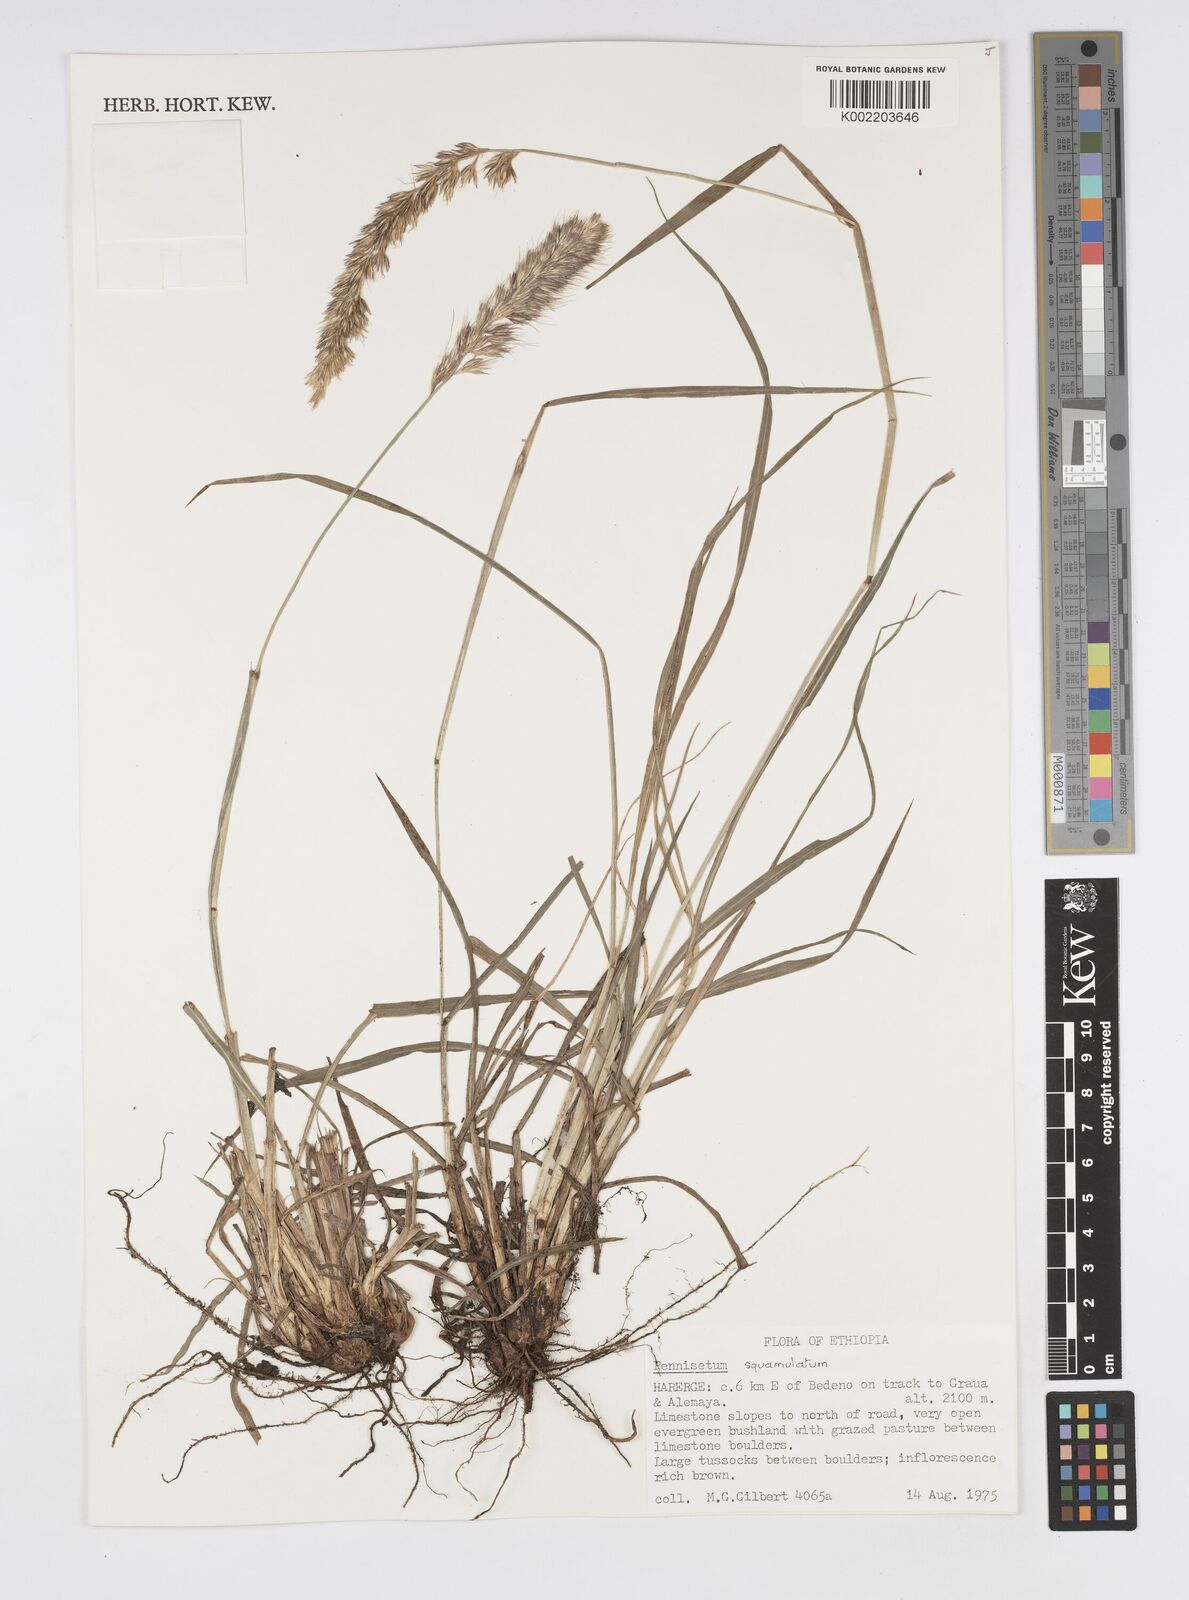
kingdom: Plantae
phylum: Tracheophyta
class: Liliopsida
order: Poales
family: Poaceae
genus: Cenchrus
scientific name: Cenchrus squamulatus
